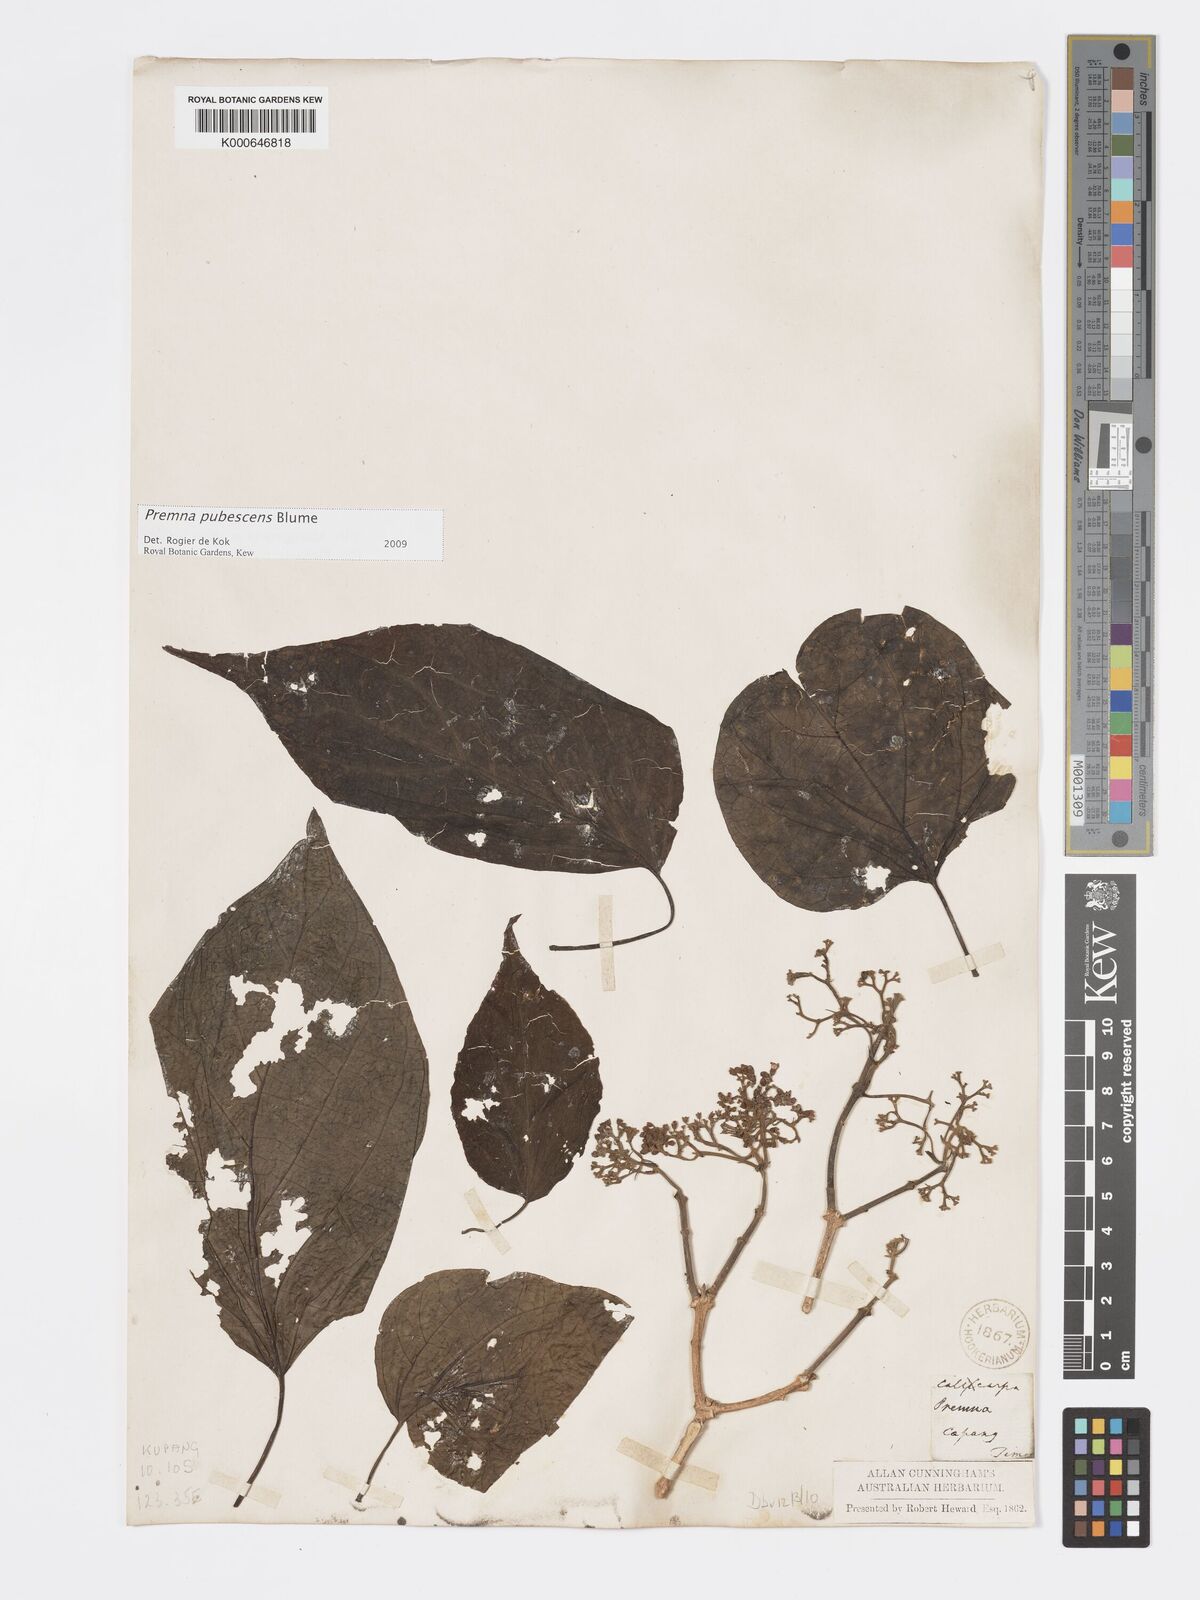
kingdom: Plantae
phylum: Tracheophyta
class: Magnoliopsida
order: Lamiales
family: Lamiaceae
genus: Premna
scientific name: Premna
